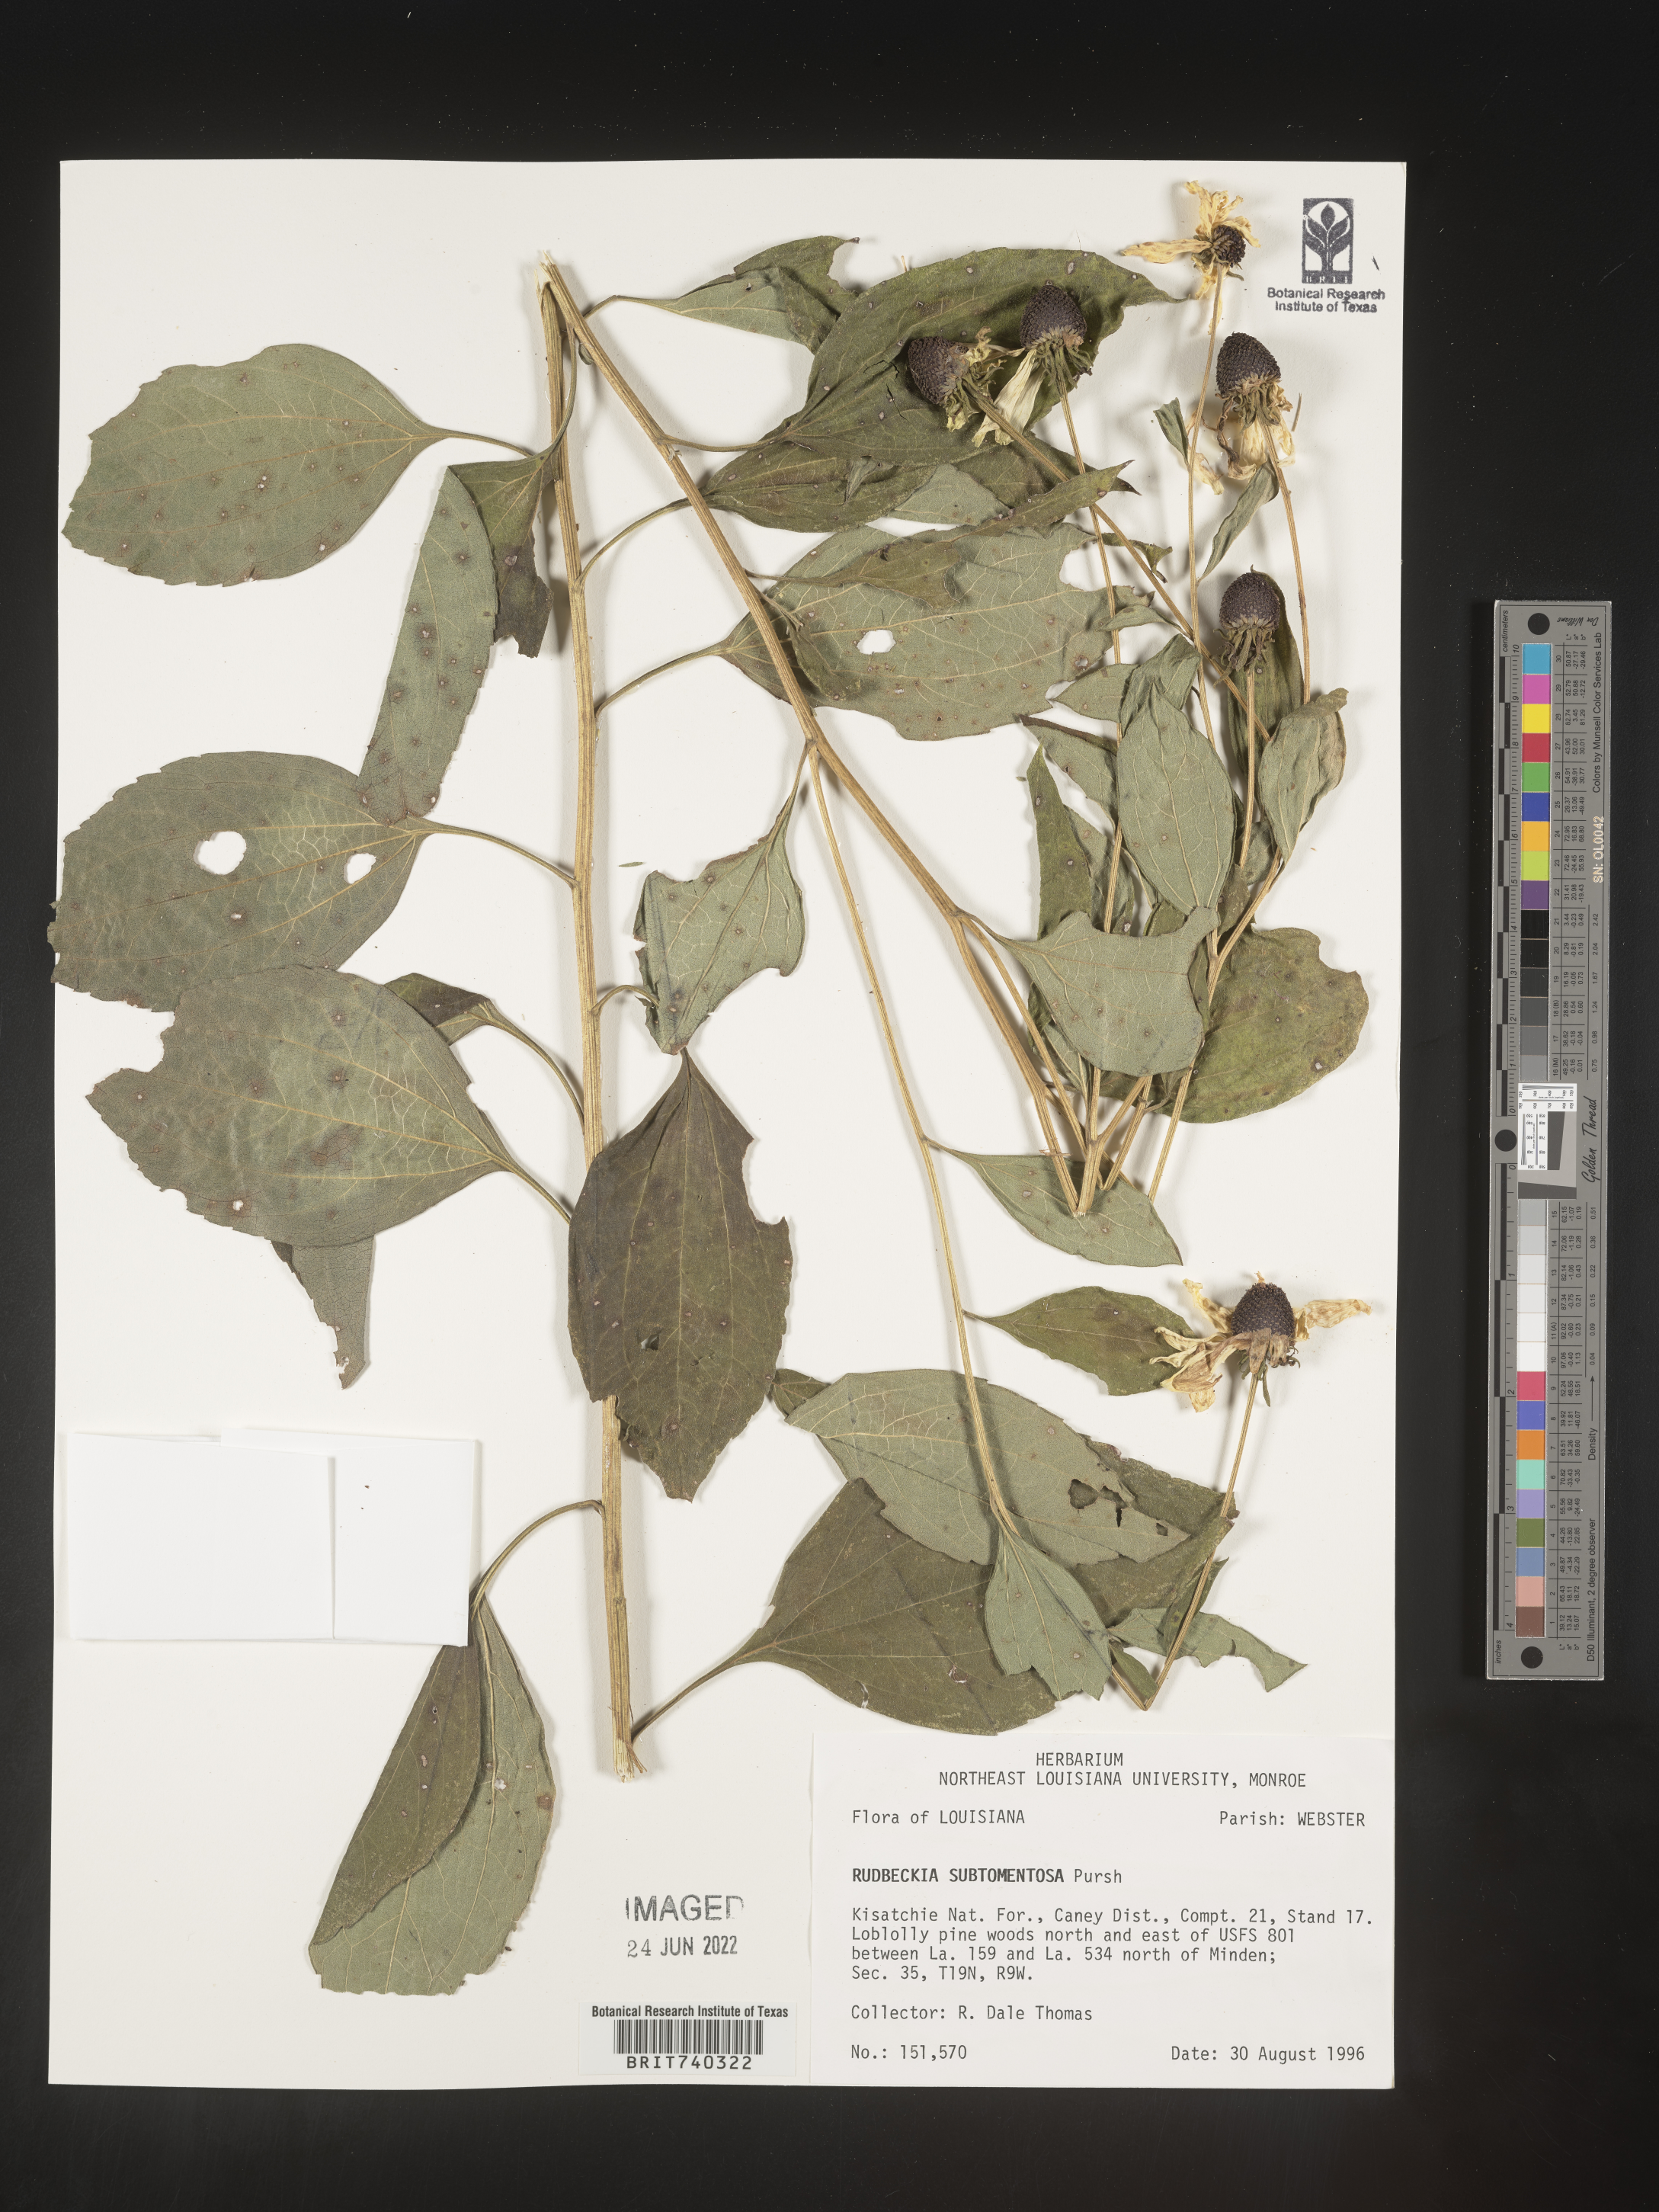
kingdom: Plantae
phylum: Tracheophyta
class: Magnoliopsida
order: Asterales
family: Asteraceae
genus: Rudbeckia
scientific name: Rudbeckia subtomentosa
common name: Sweet coneflower
